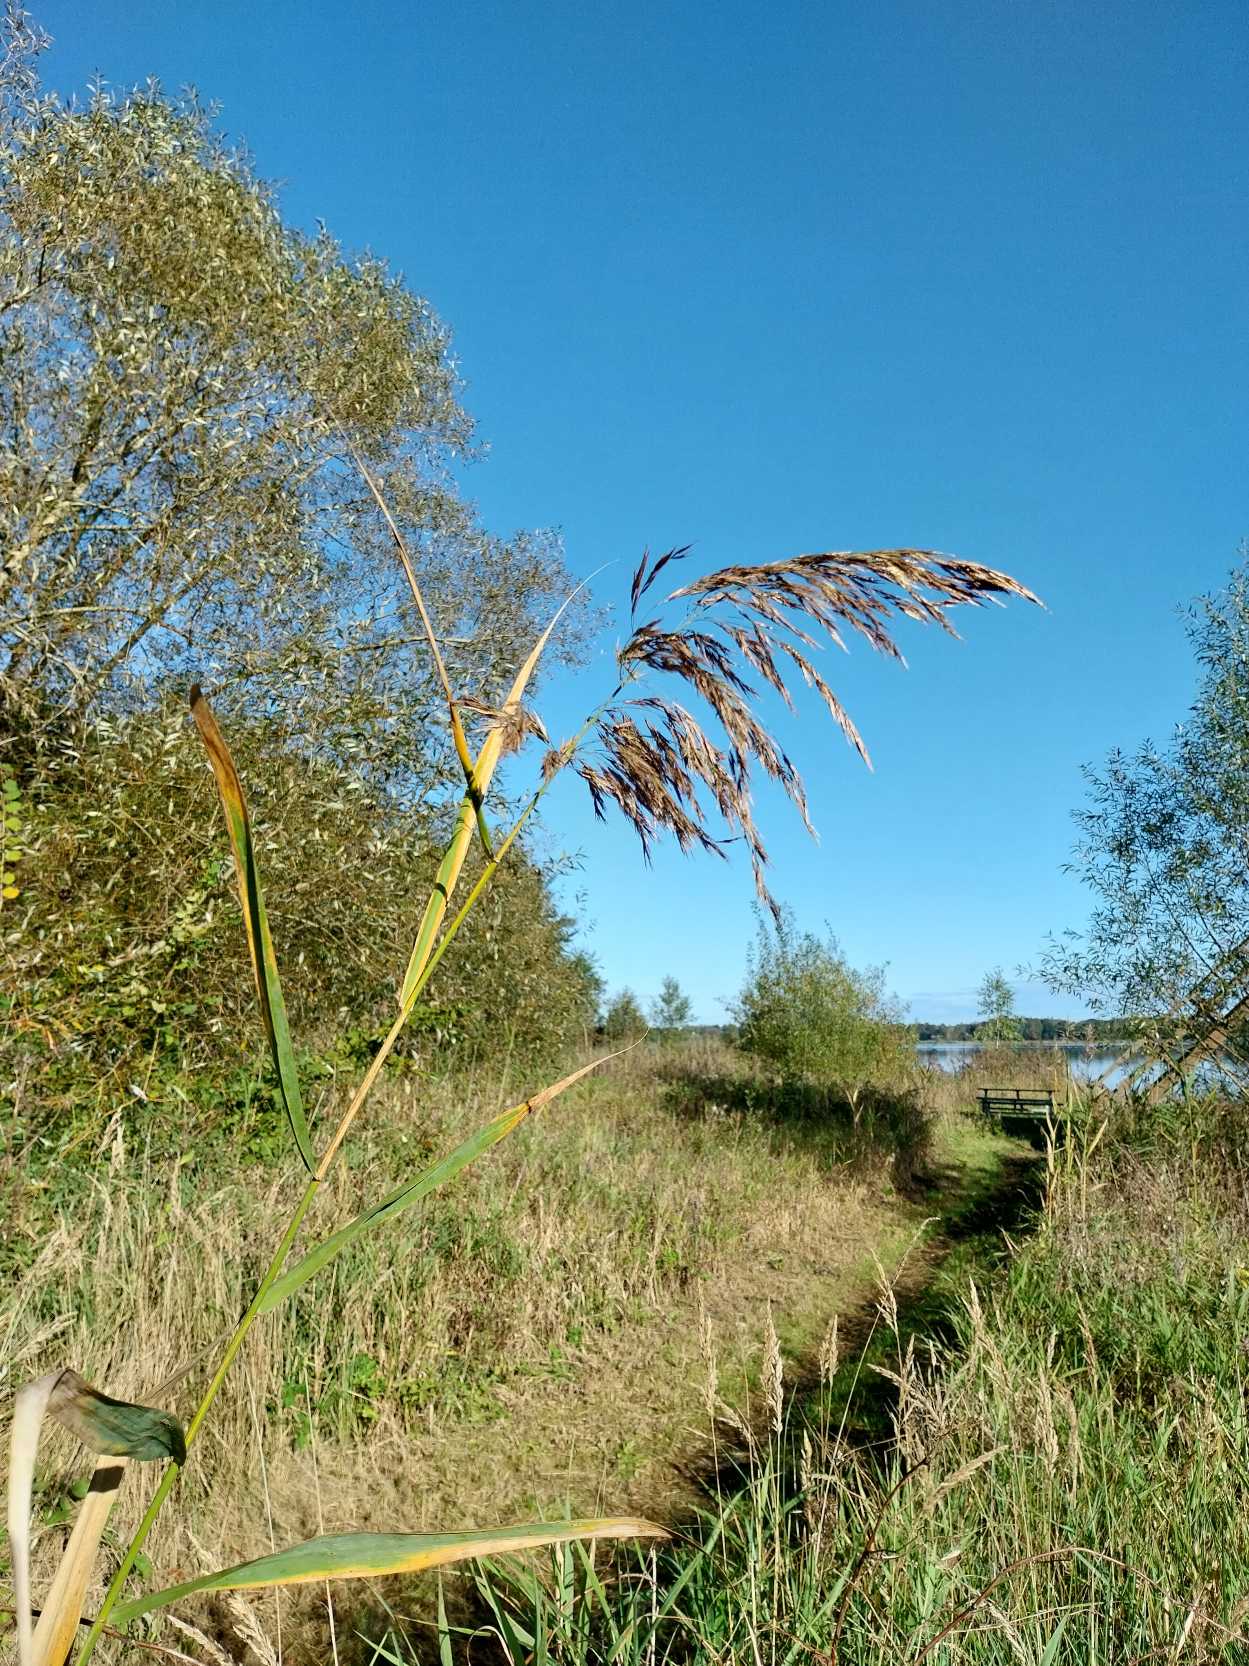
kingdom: Plantae
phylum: Tracheophyta
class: Liliopsida
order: Poales
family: Poaceae
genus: Phragmites
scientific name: Phragmites australis
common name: Tagrør
